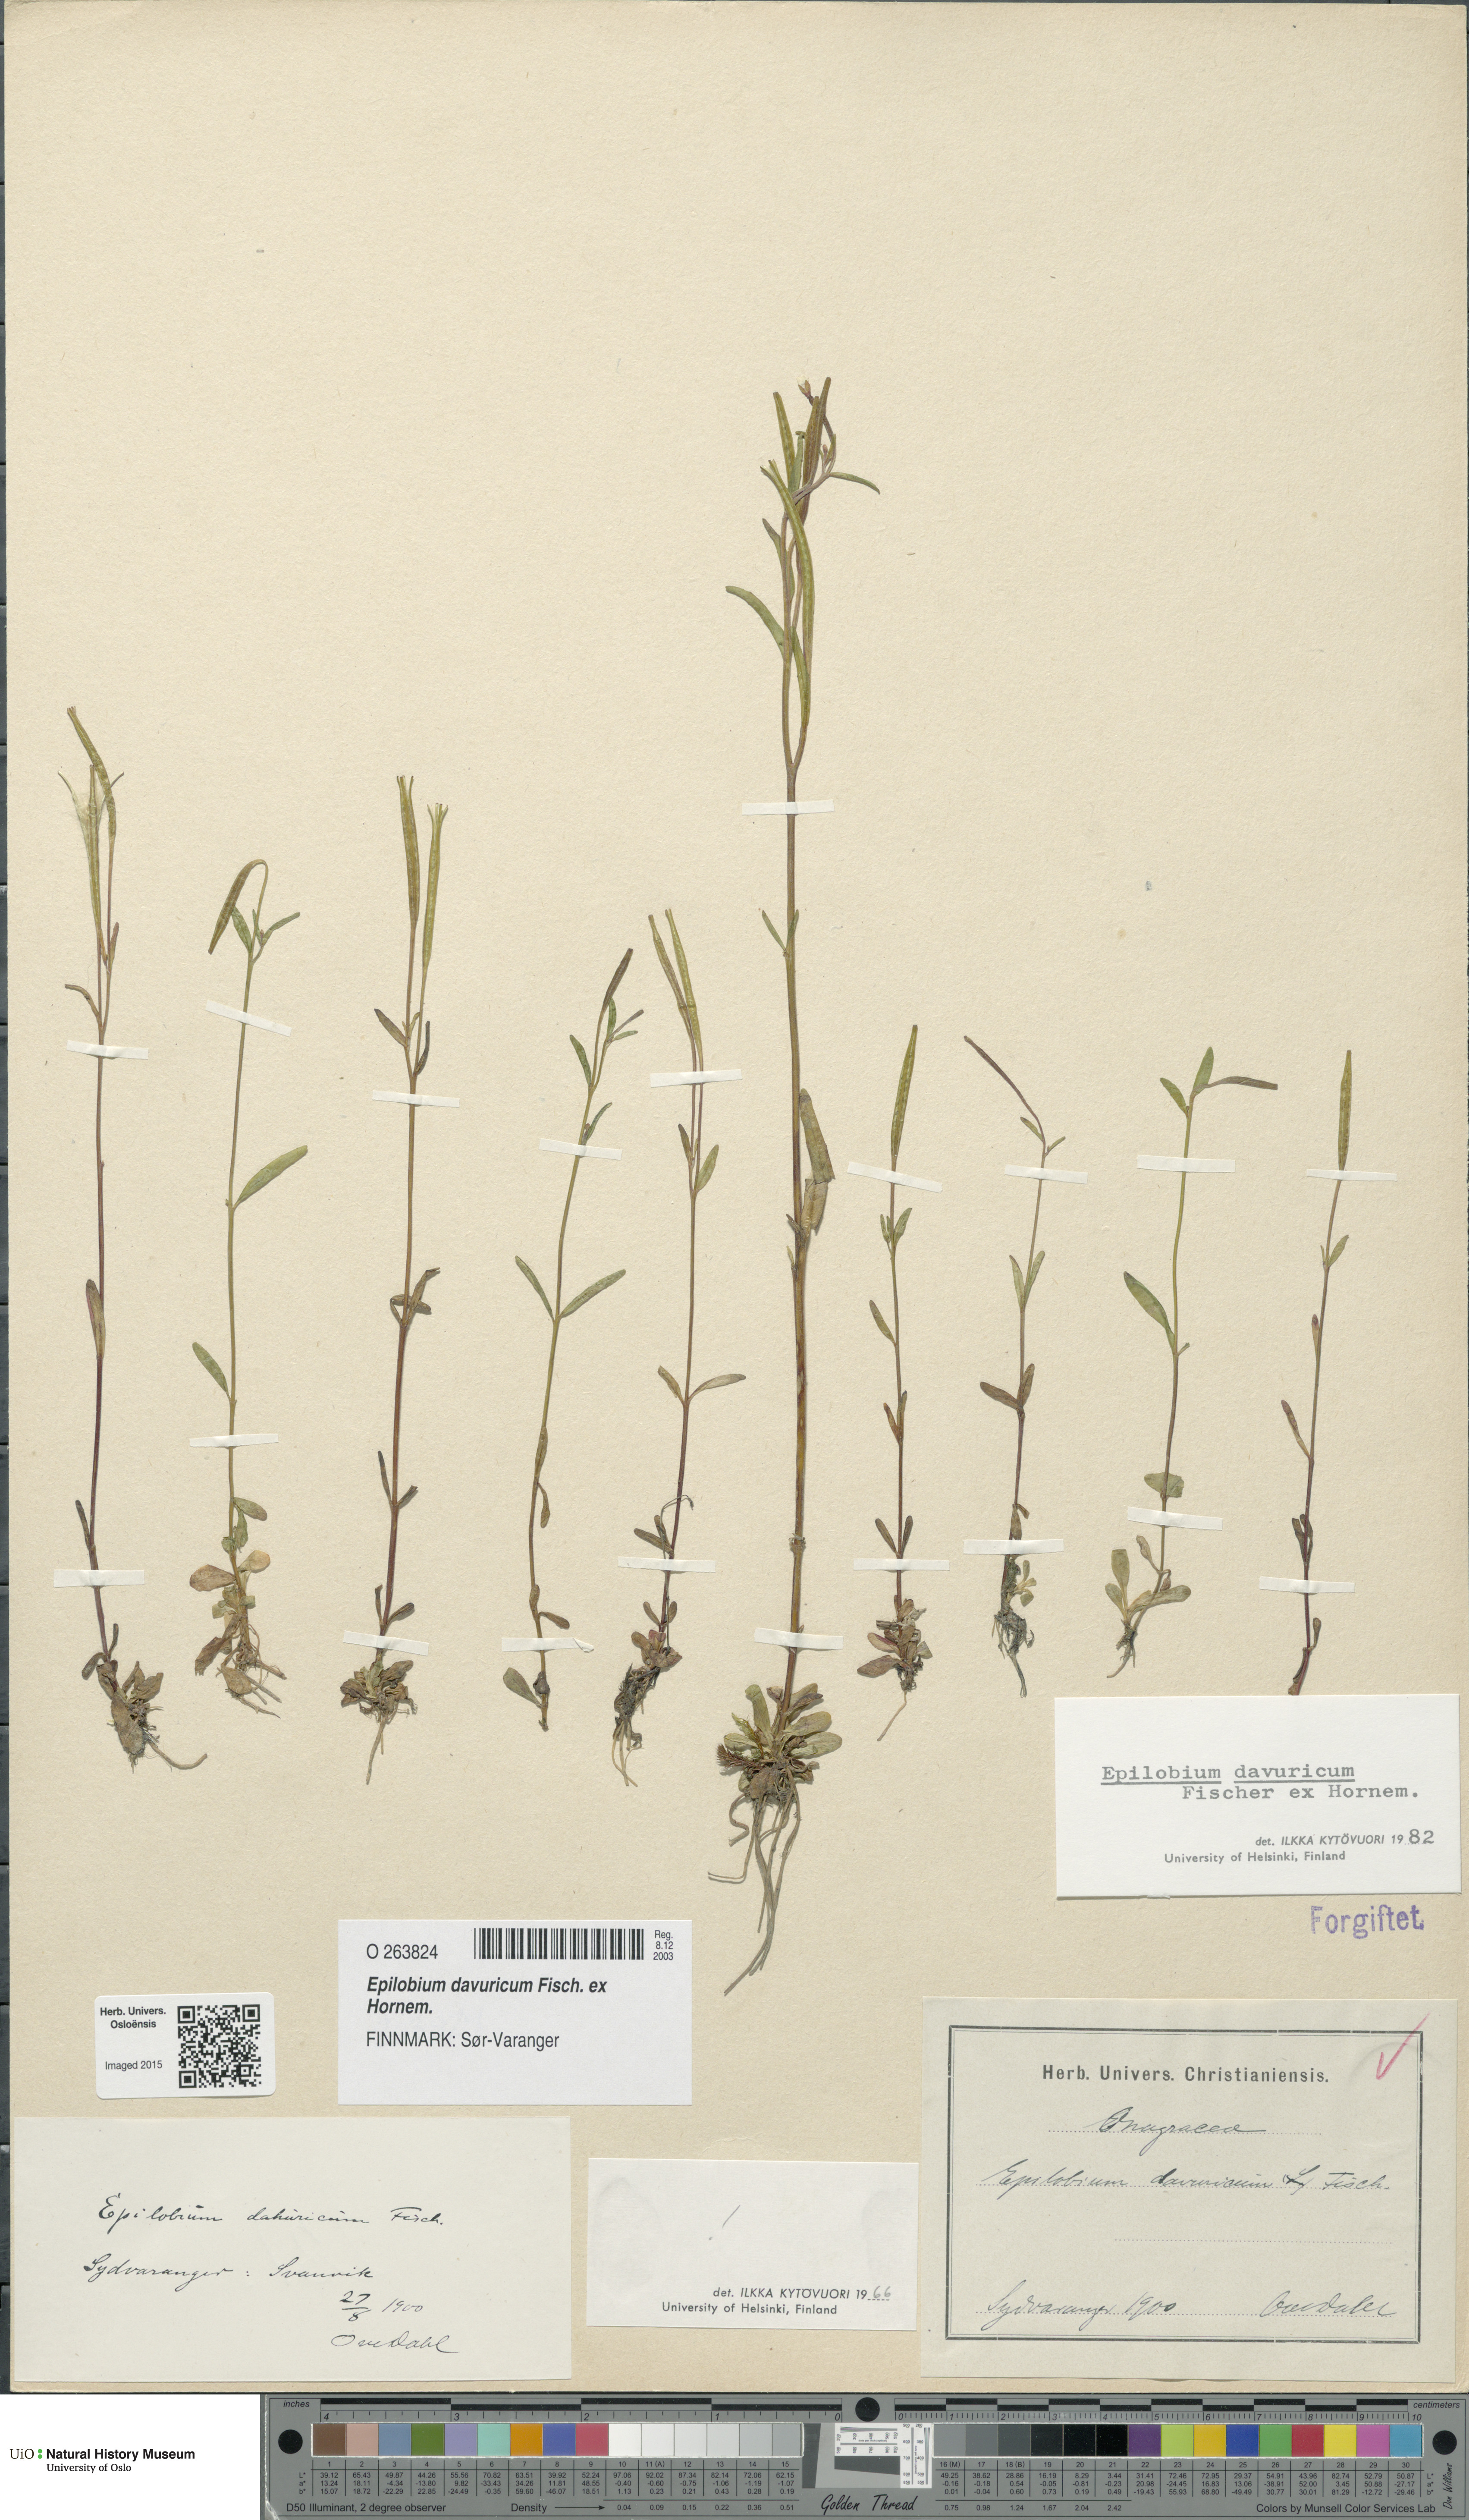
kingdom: Plantae
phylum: Tracheophyta
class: Magnoliopsida
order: Myrtales
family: Onagraceae
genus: Epilobium
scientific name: Epilobium davuricum
